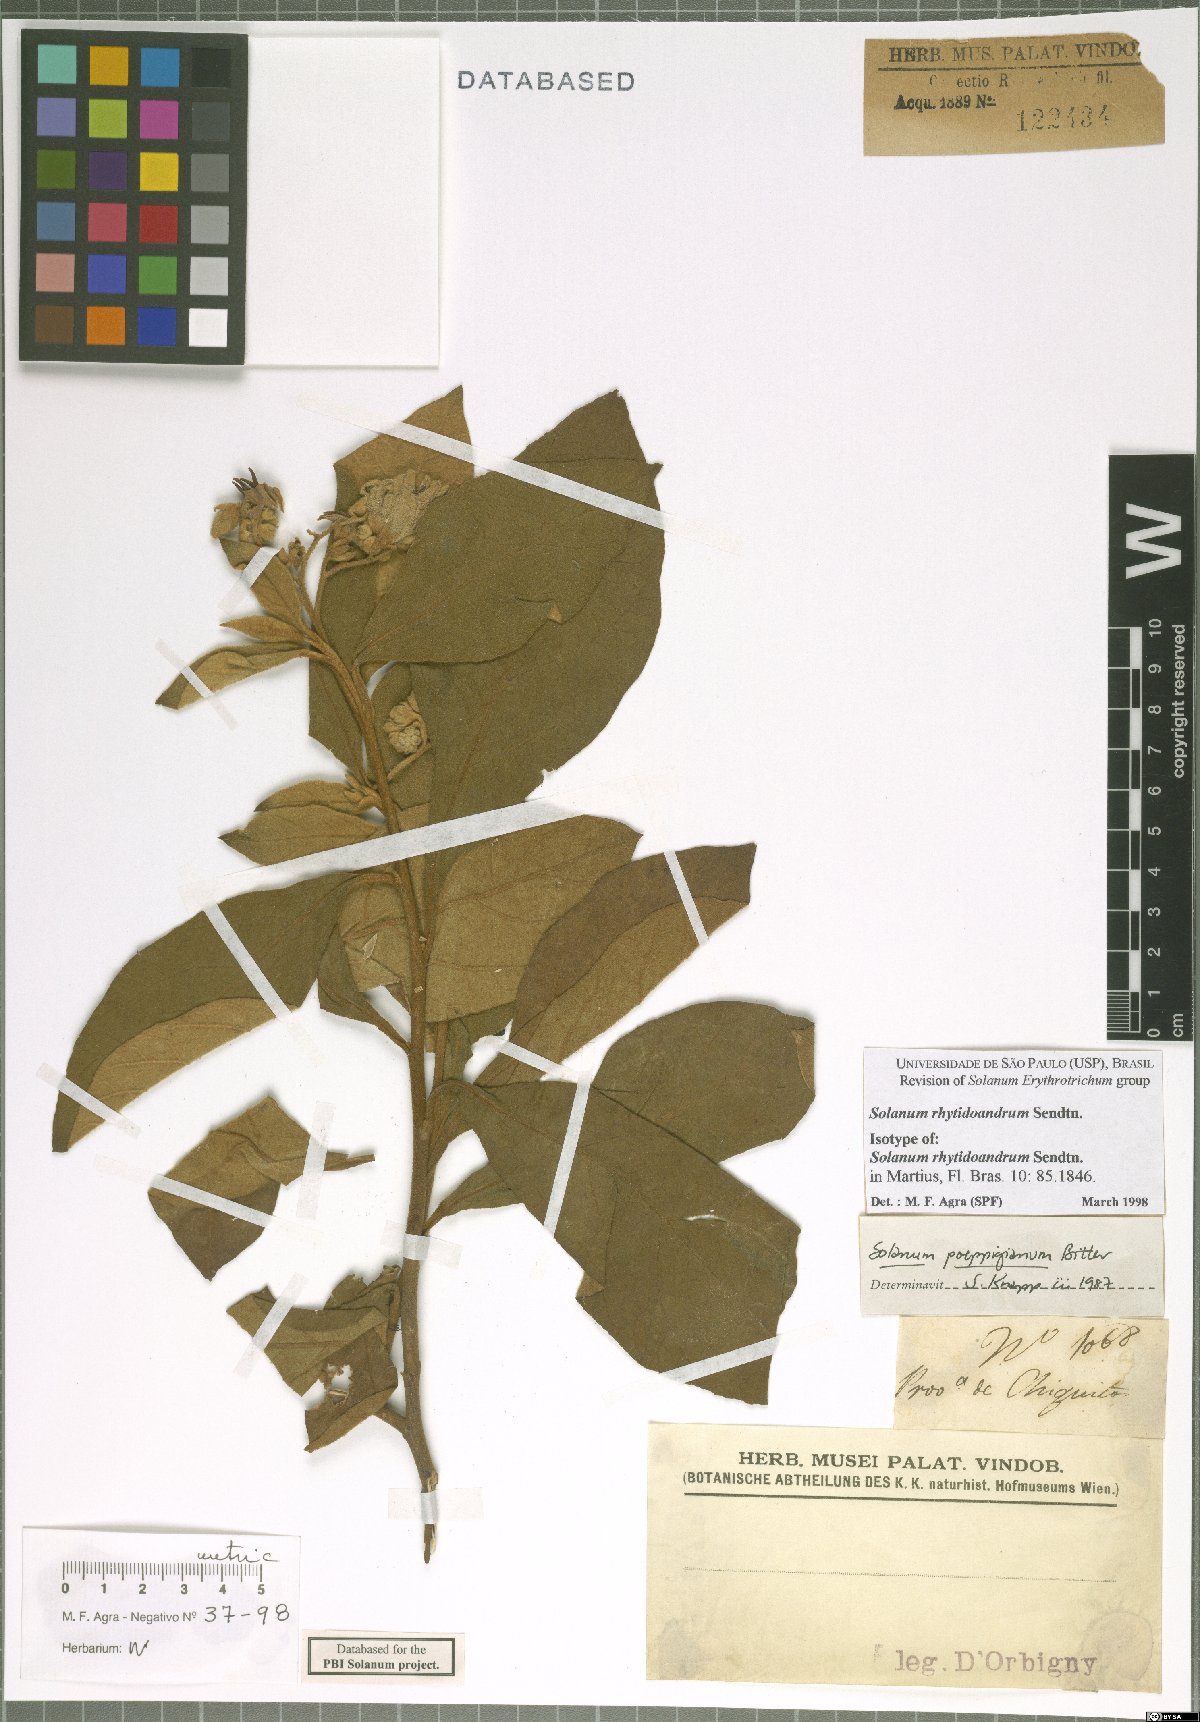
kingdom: Plantae
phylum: Tracheophyta
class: Magnoliopsida
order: Solanales
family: Solanaceae
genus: Solanum
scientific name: Solanum rhytidoandrum
